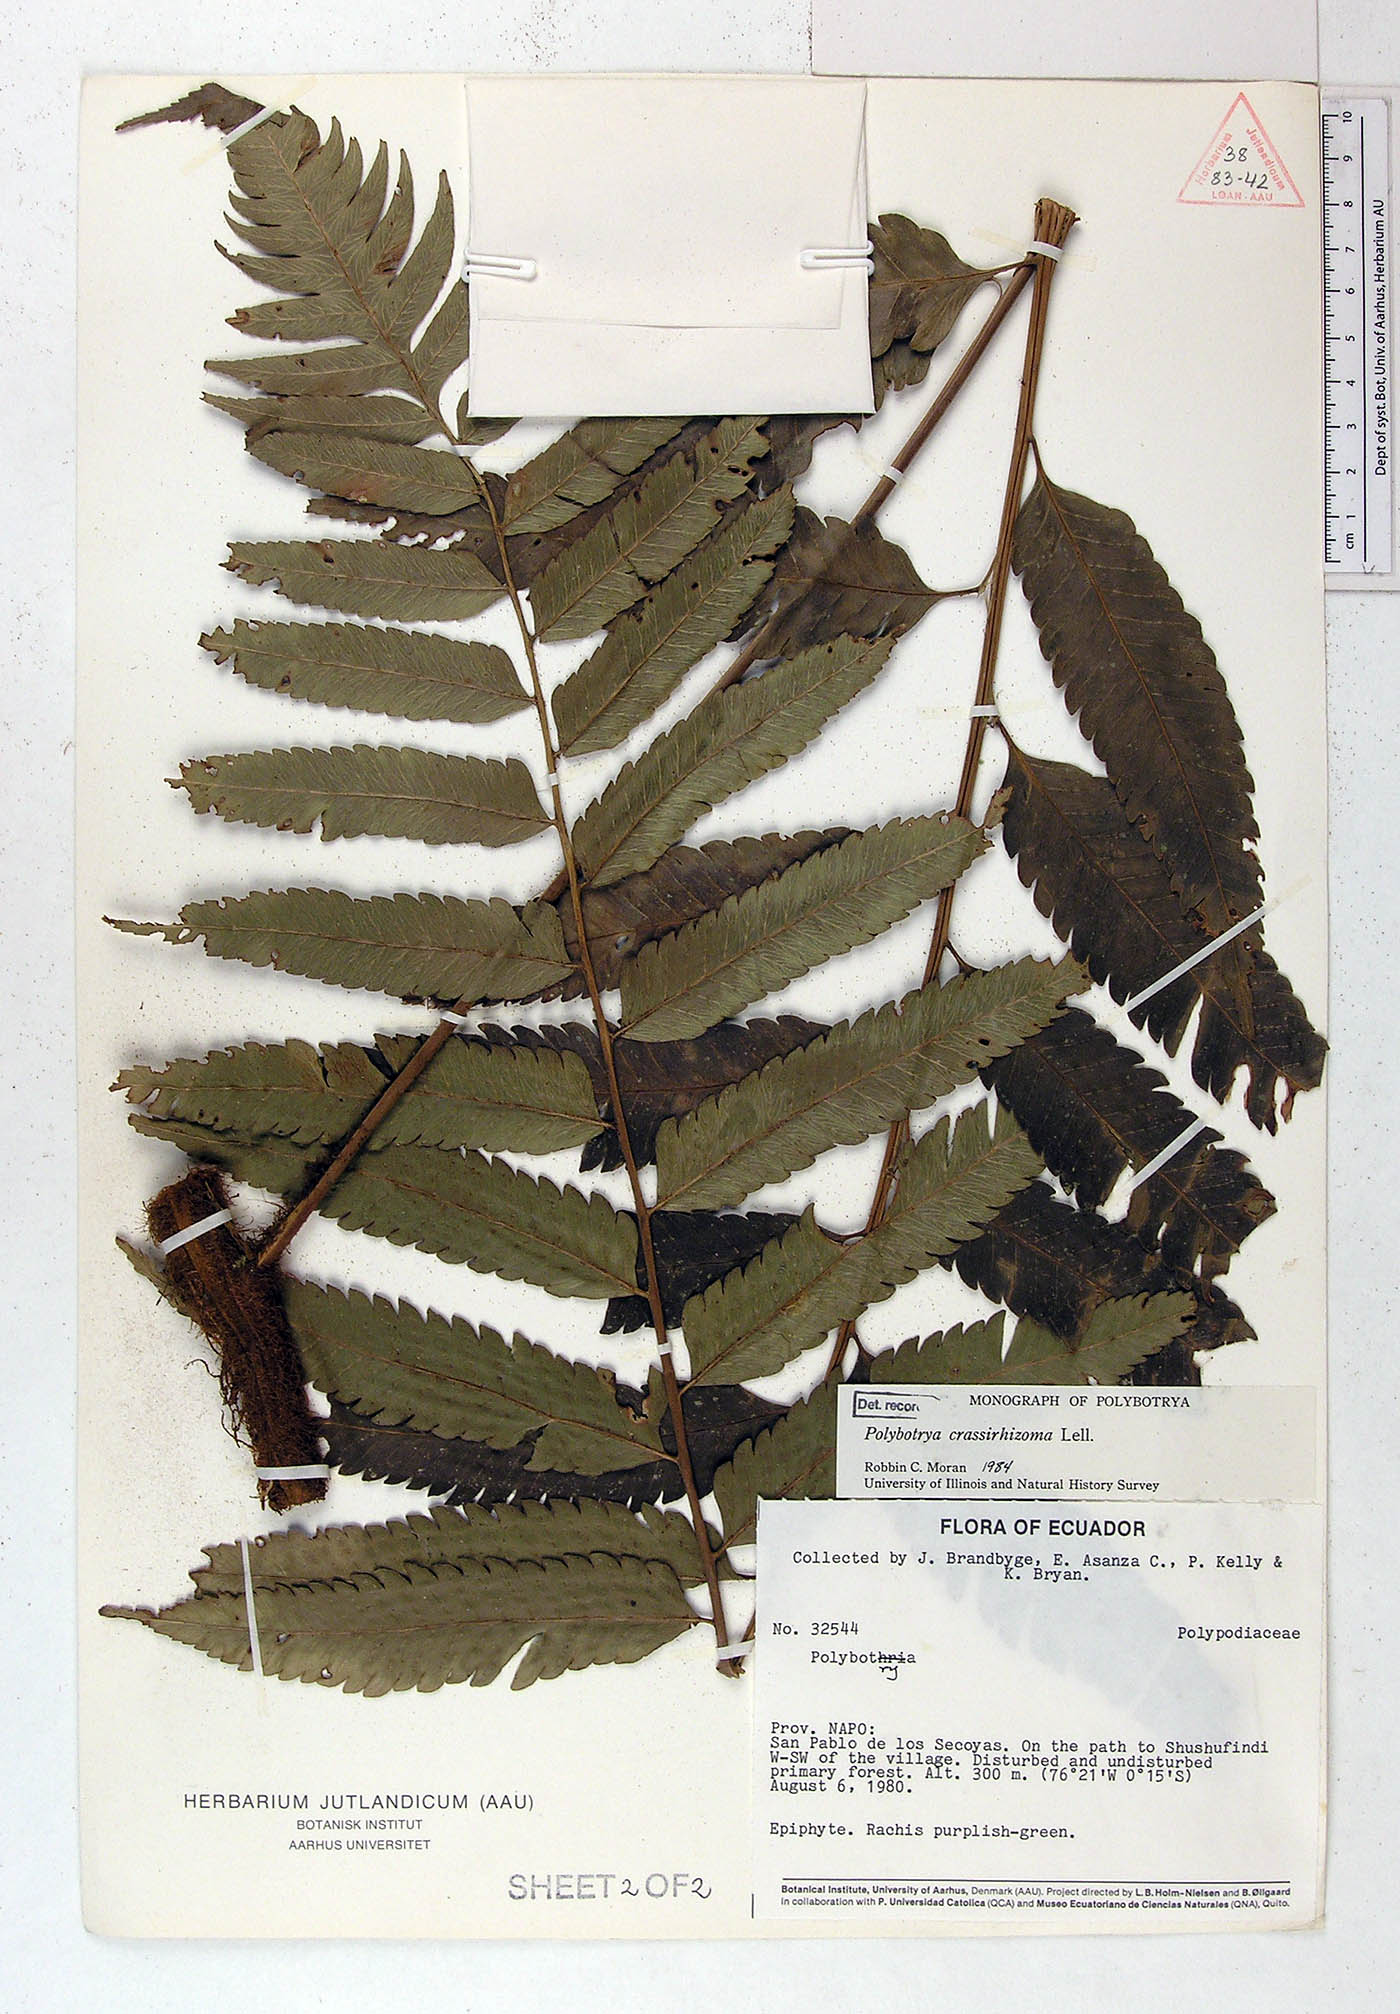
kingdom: Plantae
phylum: Tracheophyta
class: Polypodiopsida
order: Polypodiales
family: Dryopteridaceae
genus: Polybotrya
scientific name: Polybotrya crassirhizoma
